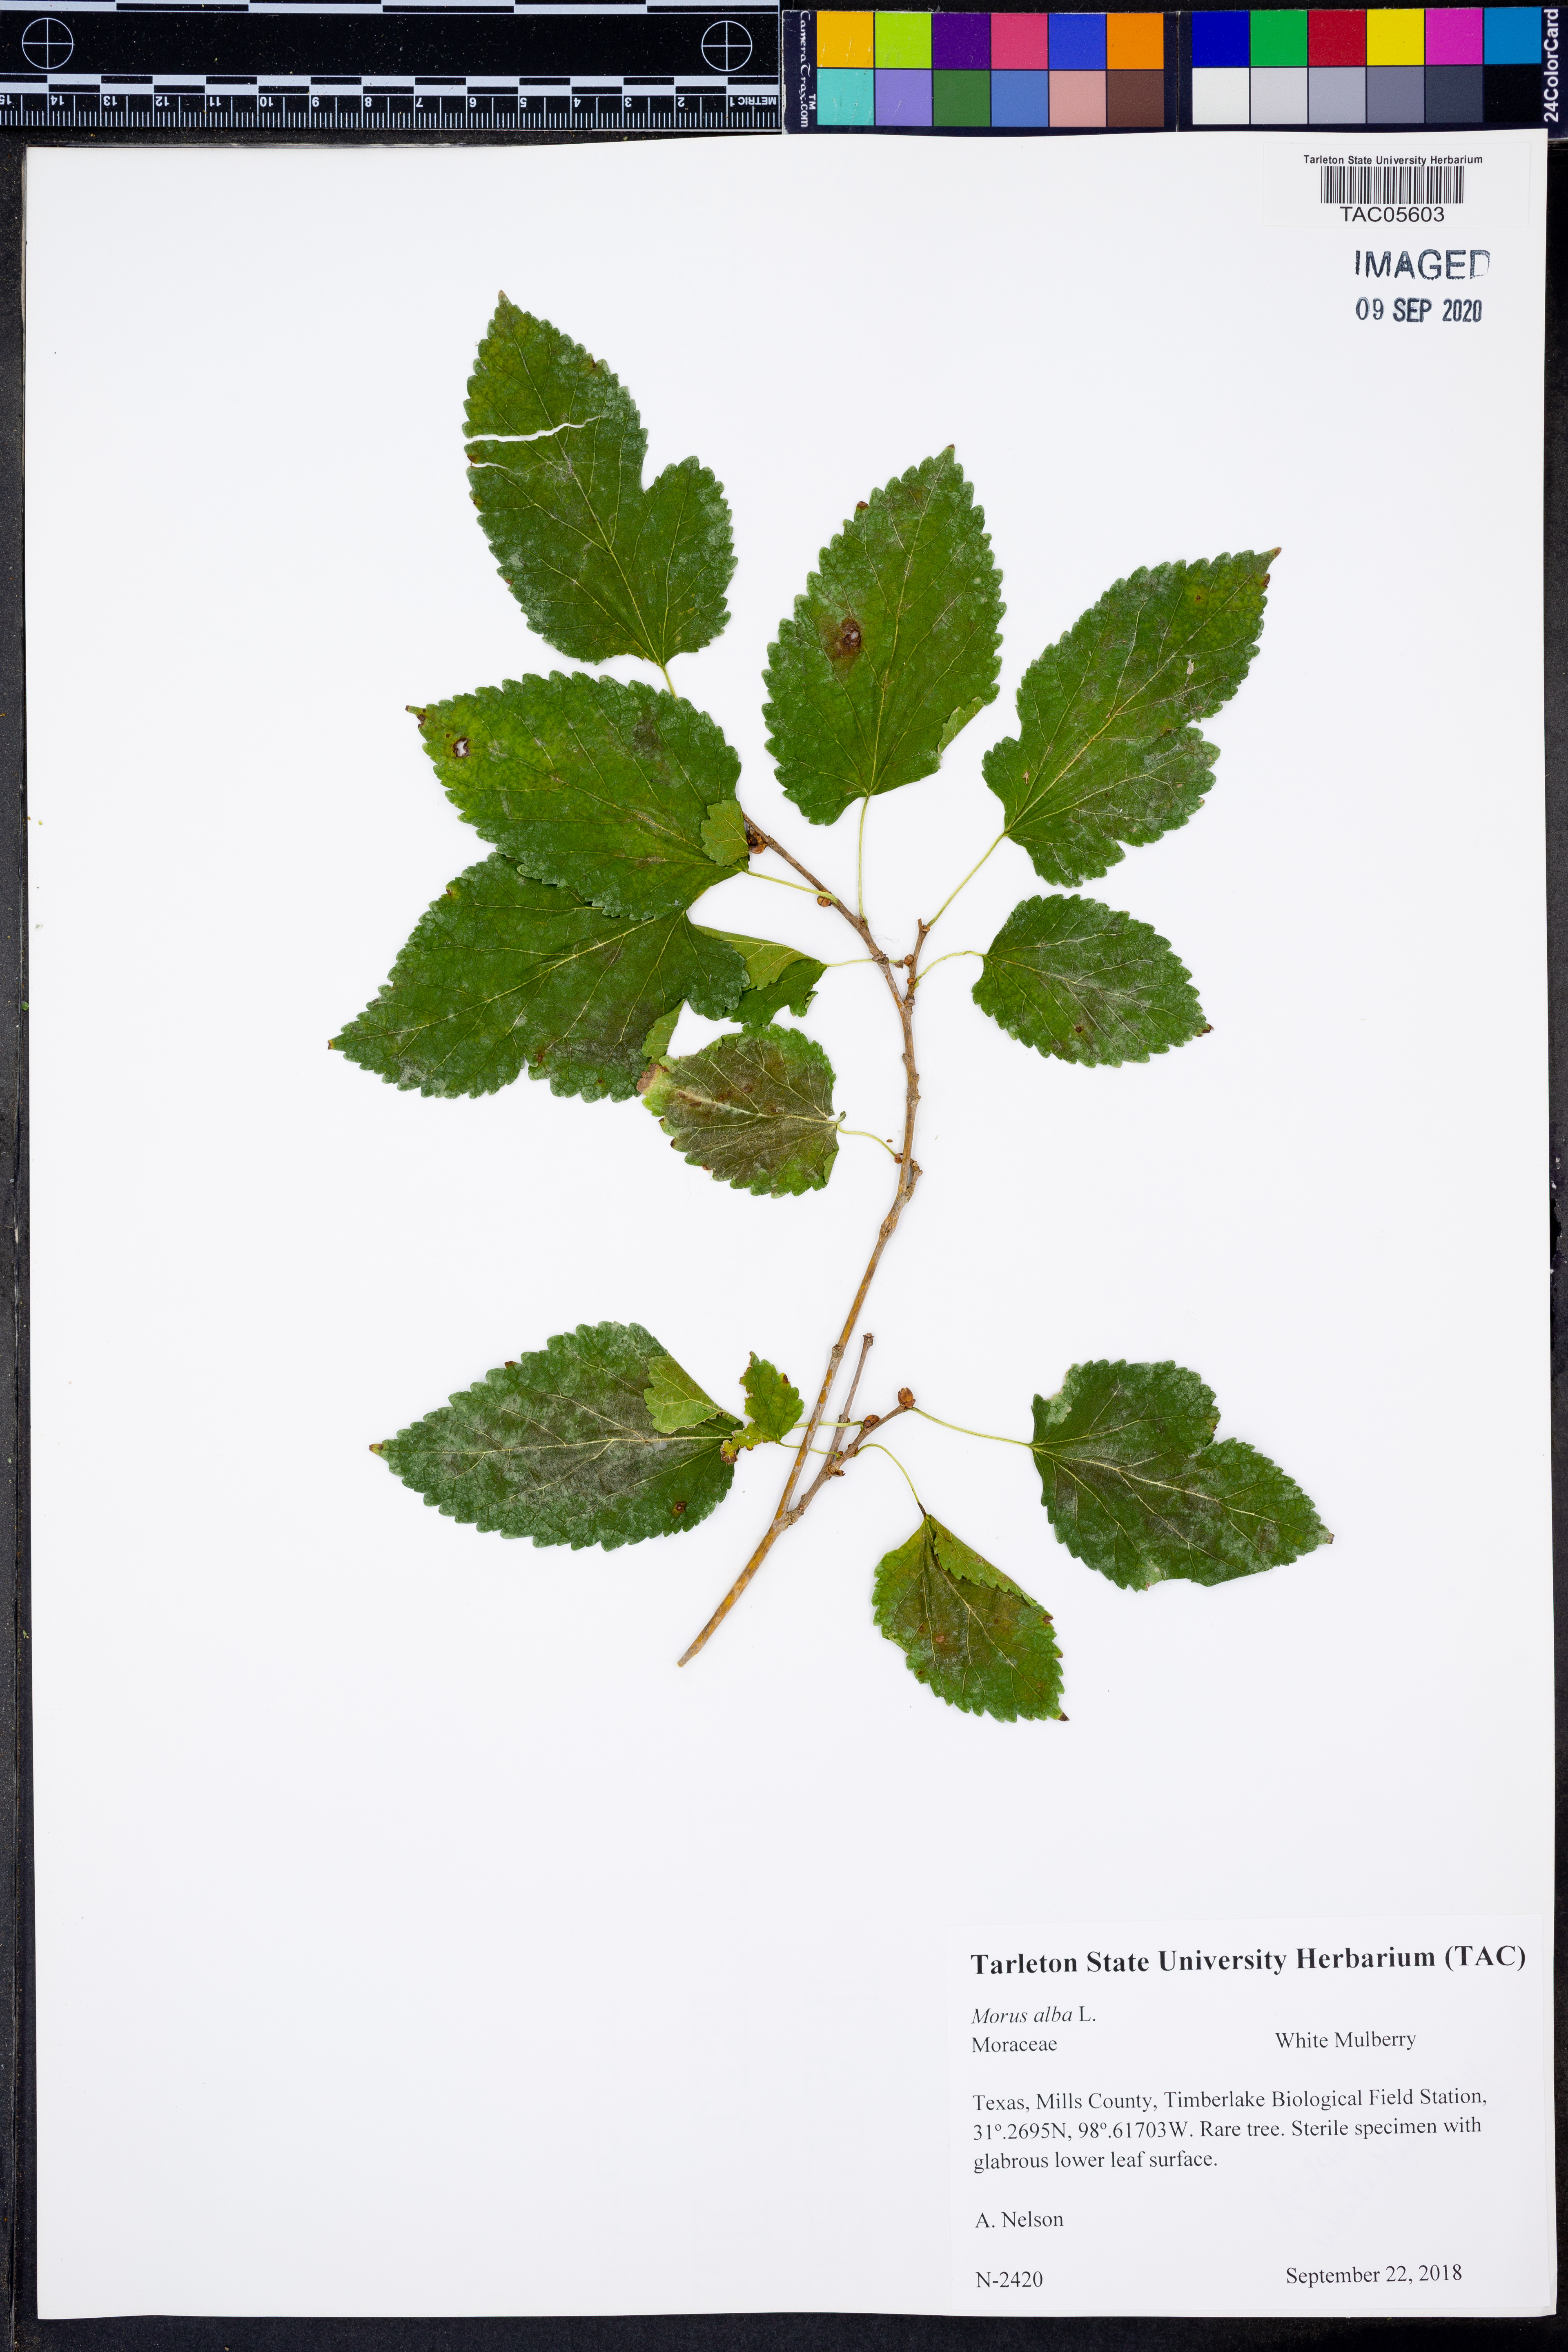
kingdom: Plantae
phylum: Tracheophyta
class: Magnoliopsida
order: Rosales
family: Moraceae
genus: Morus
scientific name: Morus alba
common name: White mulberry
